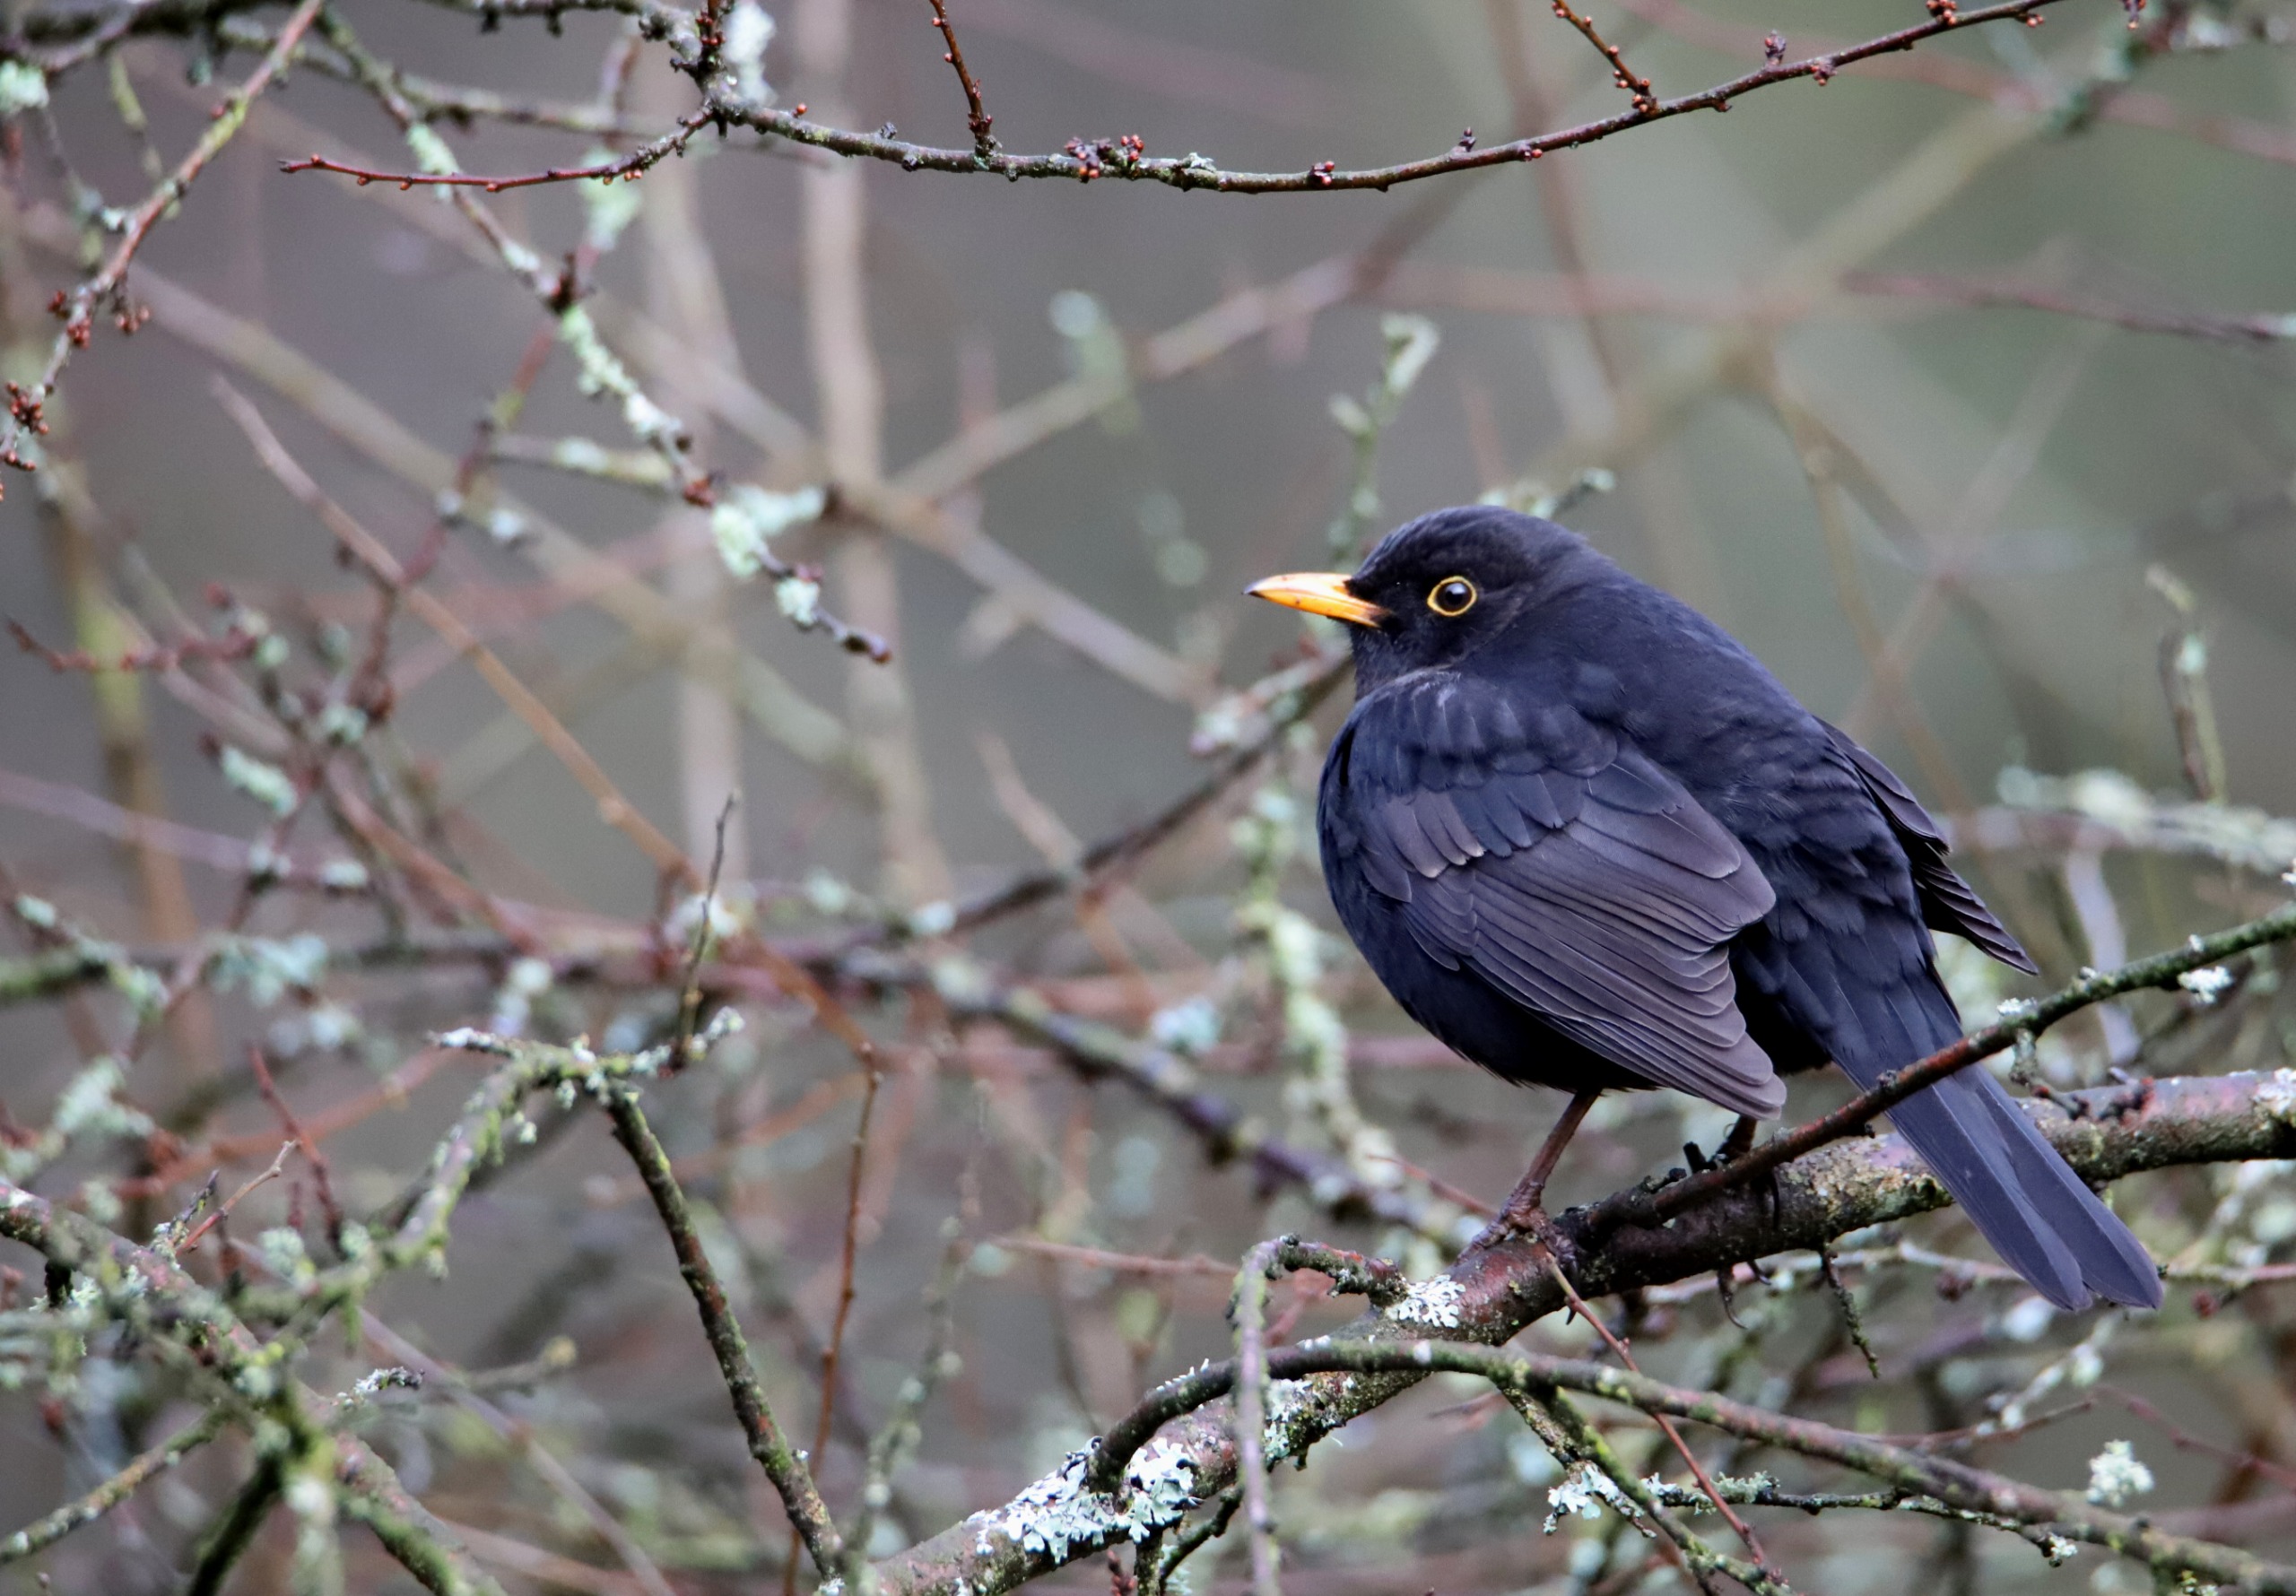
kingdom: Animalia
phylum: Chordata
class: Aves
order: Passeriformes
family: Turdidae
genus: Turdus
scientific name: Turdus merula
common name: Solsort
